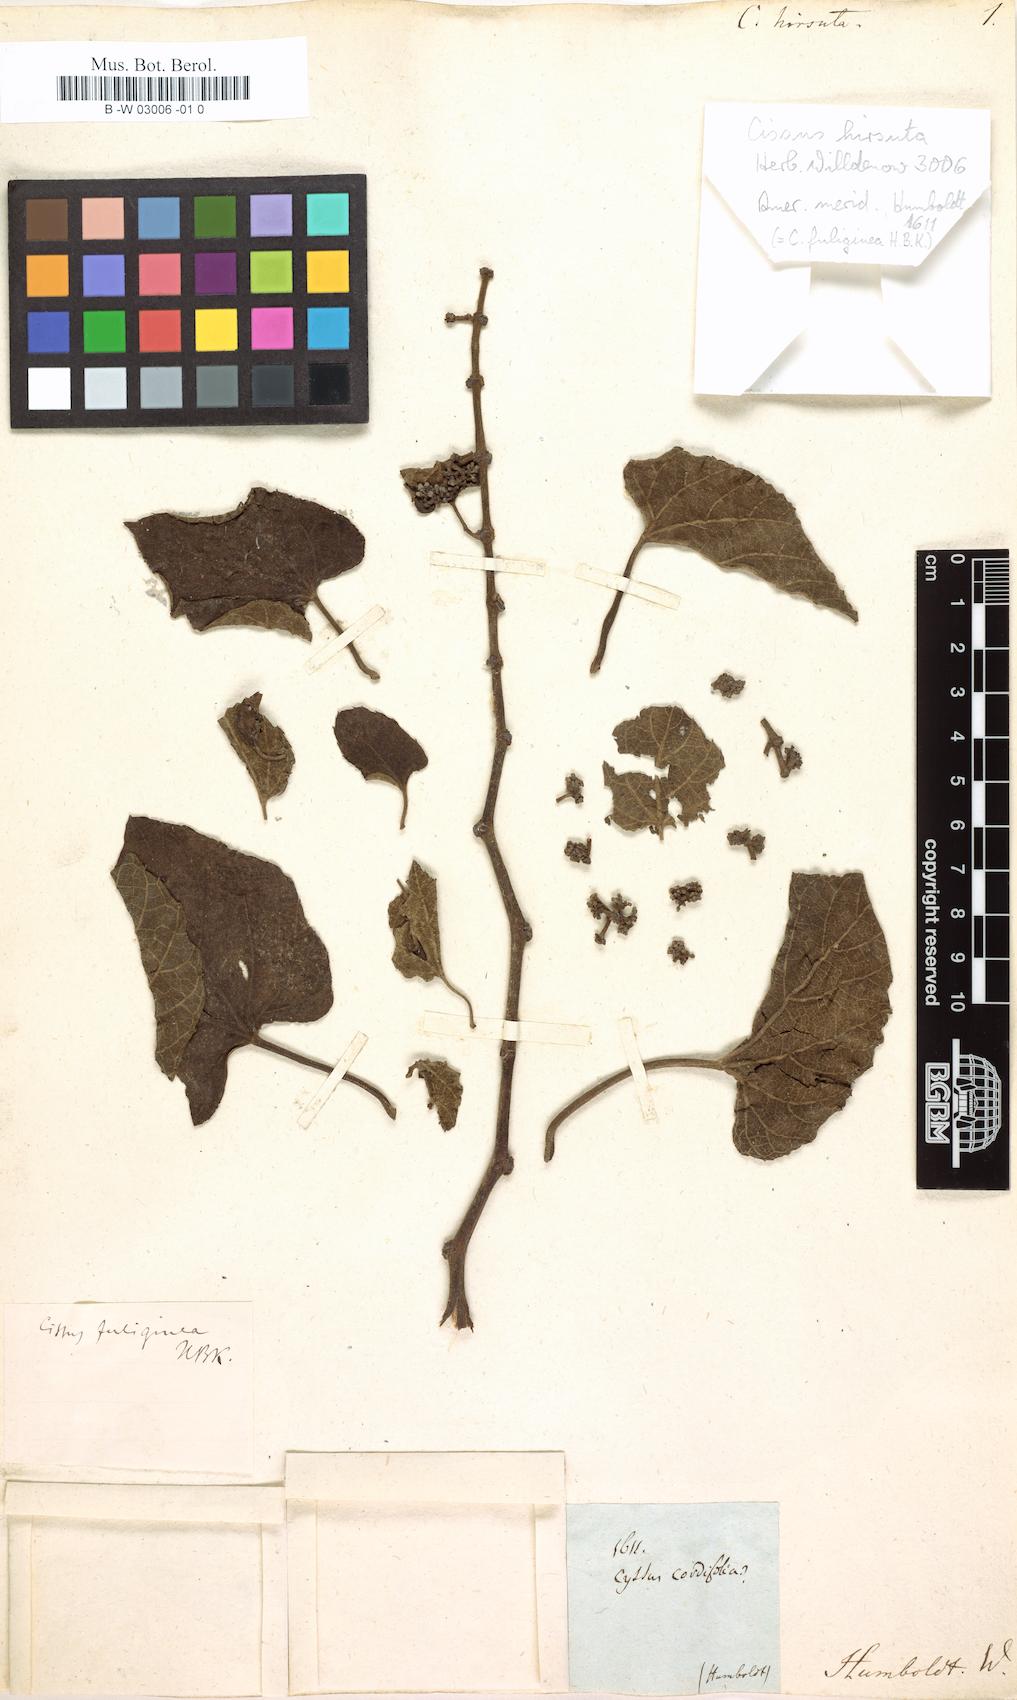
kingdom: Plantae
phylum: Tracheophyta
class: Magnoliopsida
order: Vitales
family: Vitaceae
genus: Parthenocissus
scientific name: Parthenocissus quinquefolia
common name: Virginia-creeper
